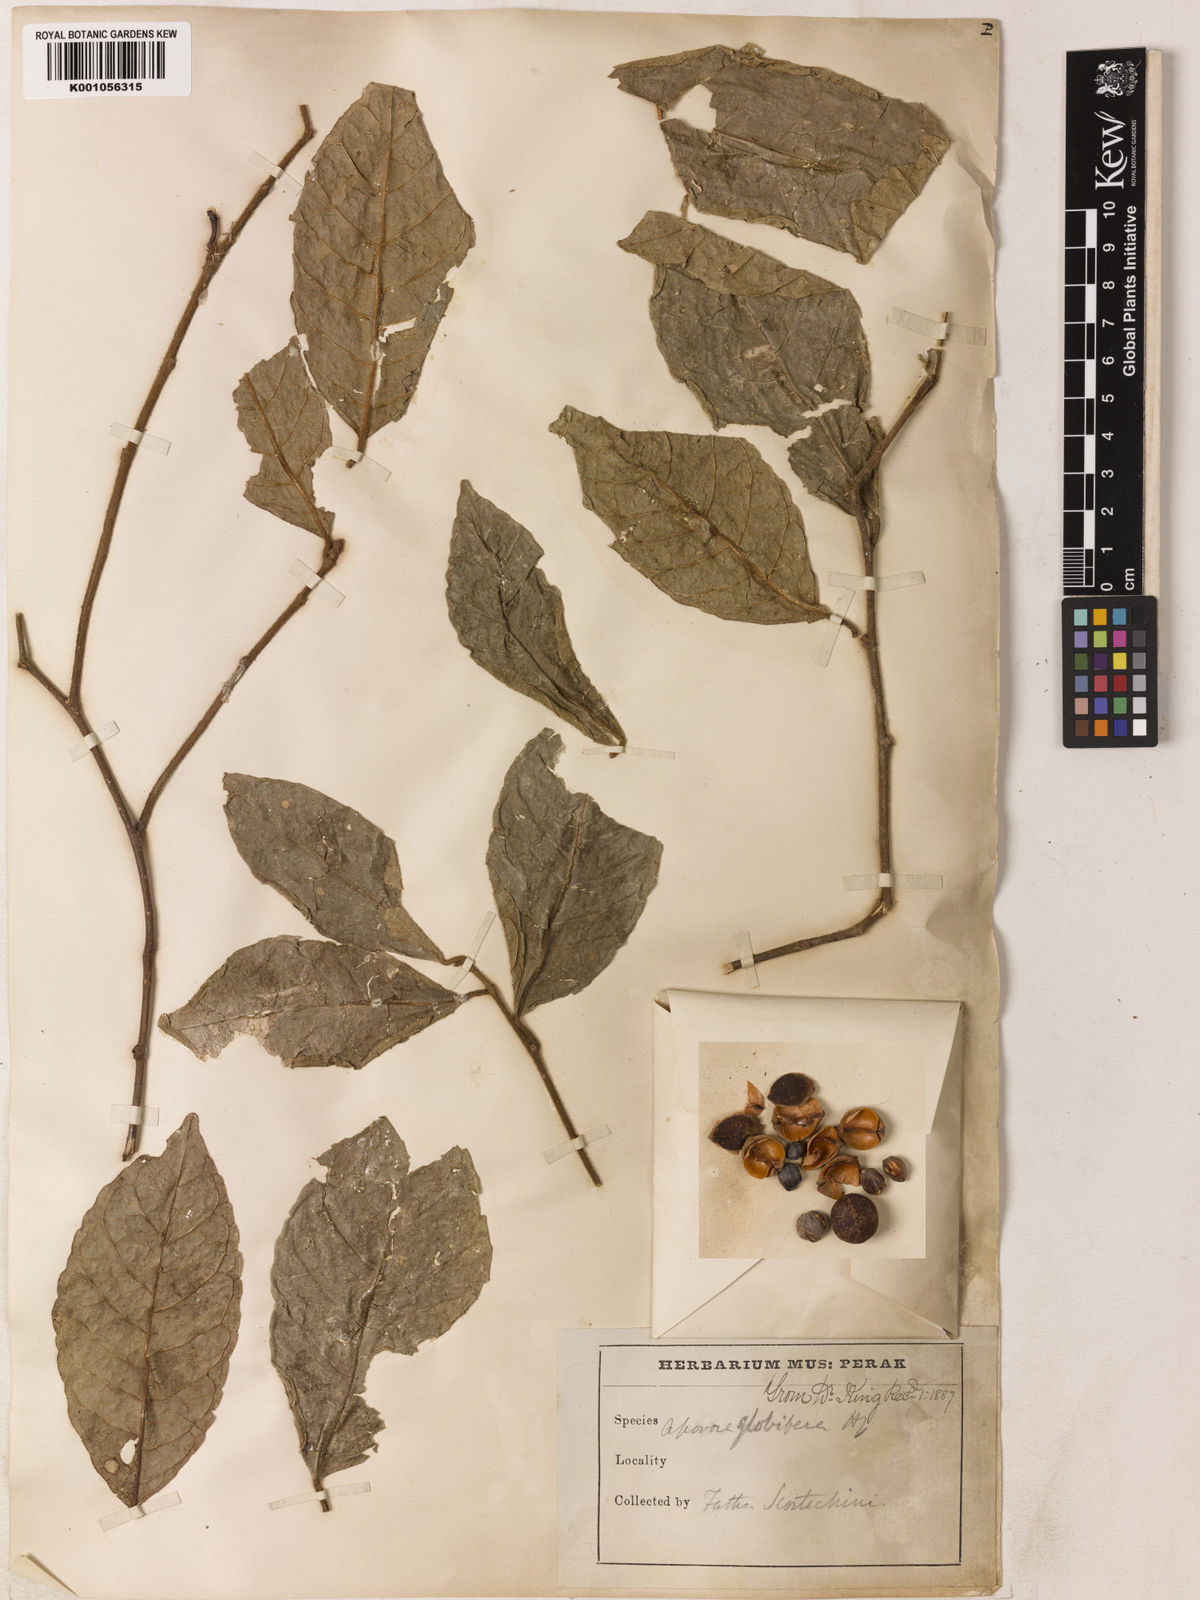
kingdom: Plantae
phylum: Tracheophyta
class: Magnoliopsida
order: Malpighiales
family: Phyllanthaceae
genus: Aporosa
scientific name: Aporosa globifera
